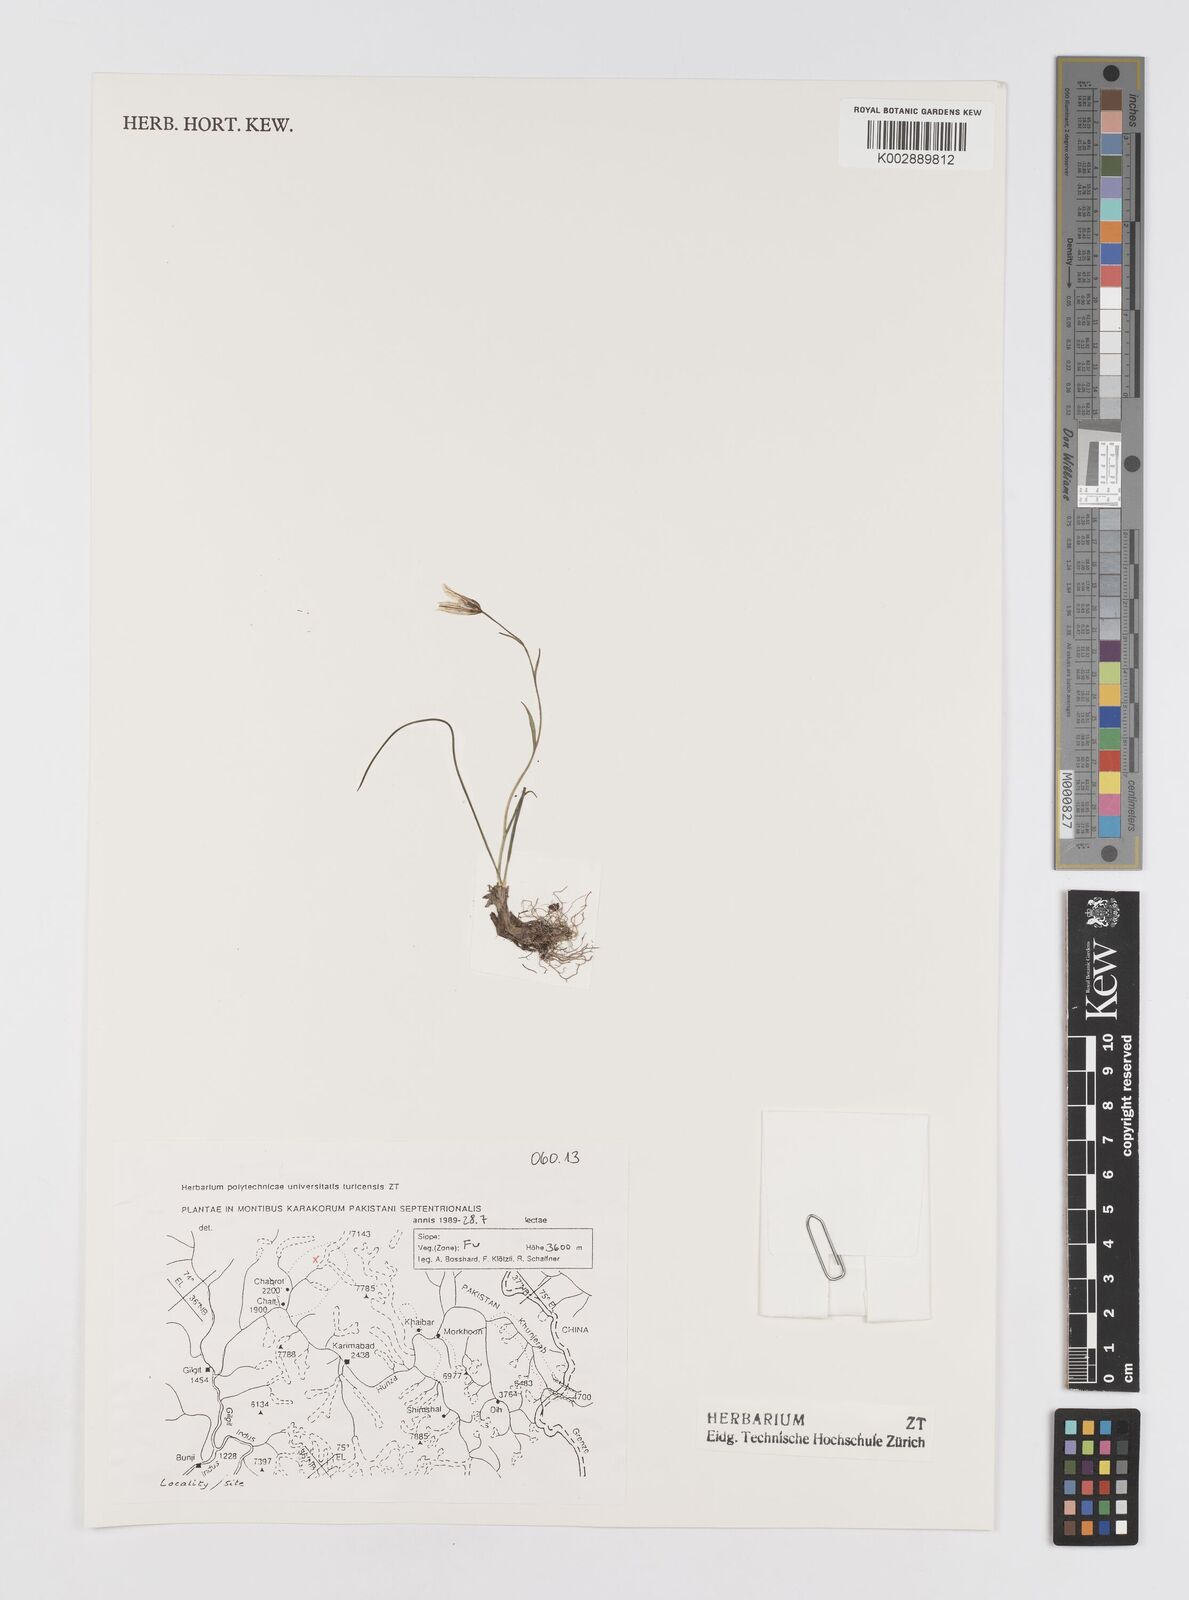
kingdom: Plantae
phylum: Tracheophyta
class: Liliopsida
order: Liliales
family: Liliaceae
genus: Gagea
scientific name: Gagea serotina
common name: Snowdon lily
